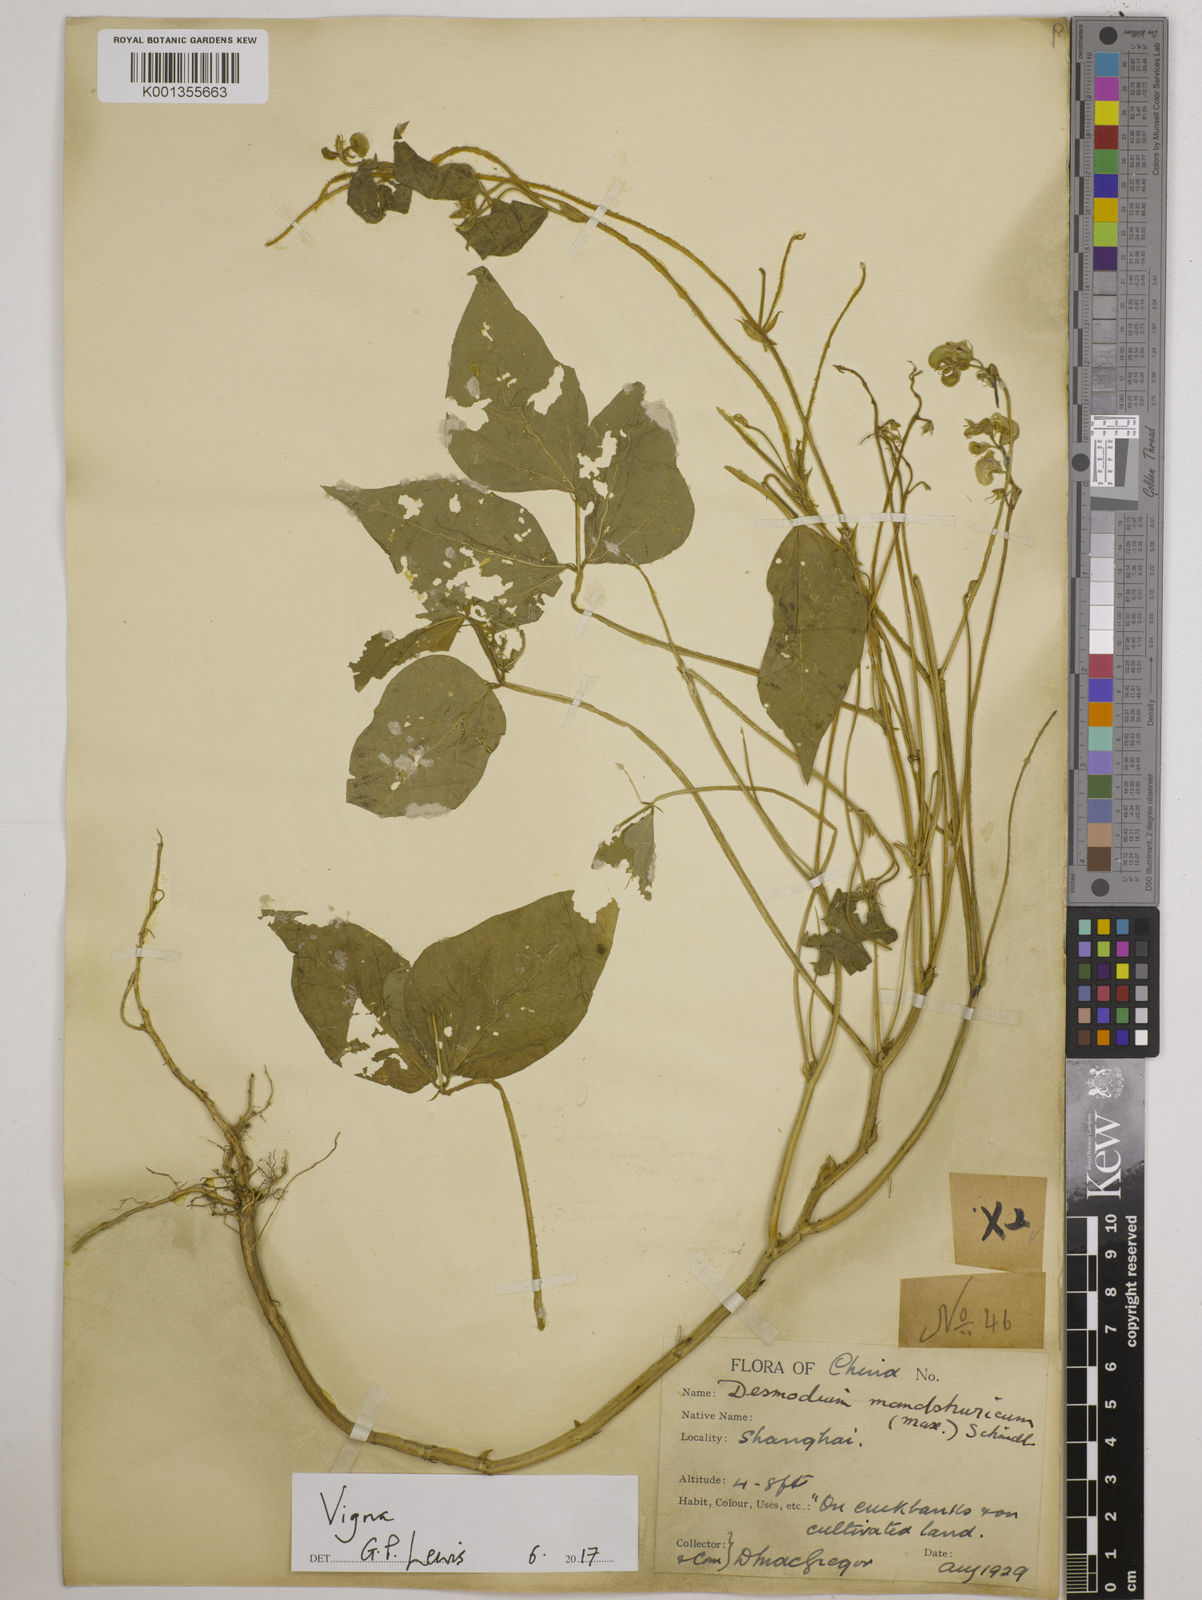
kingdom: Plantae
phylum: Tracheophyta
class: Magnoliopsida
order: Fabales
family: Fabaceae
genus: Vigna
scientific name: Vigna
